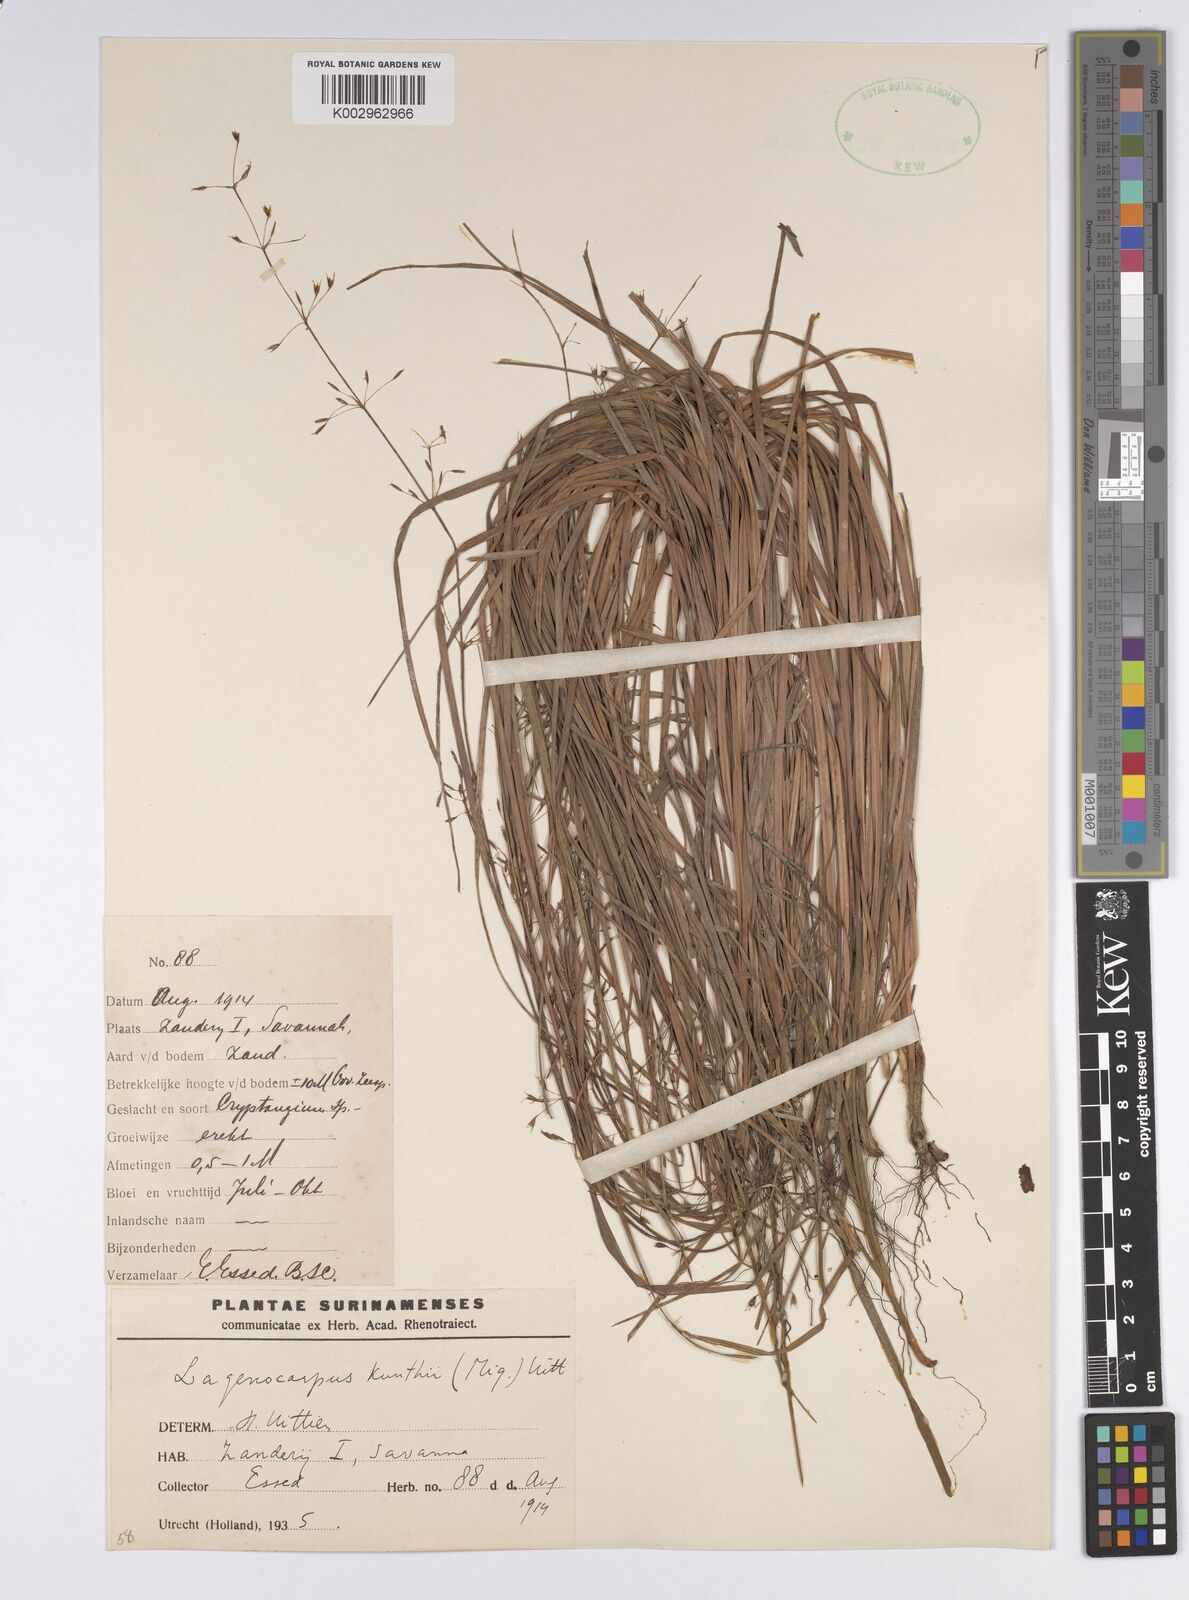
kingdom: Plantae
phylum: Tracheophyta
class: Liliopsida
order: Poales
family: Cyperaceae
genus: Cryptangium
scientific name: Cryptangium verticillatum
